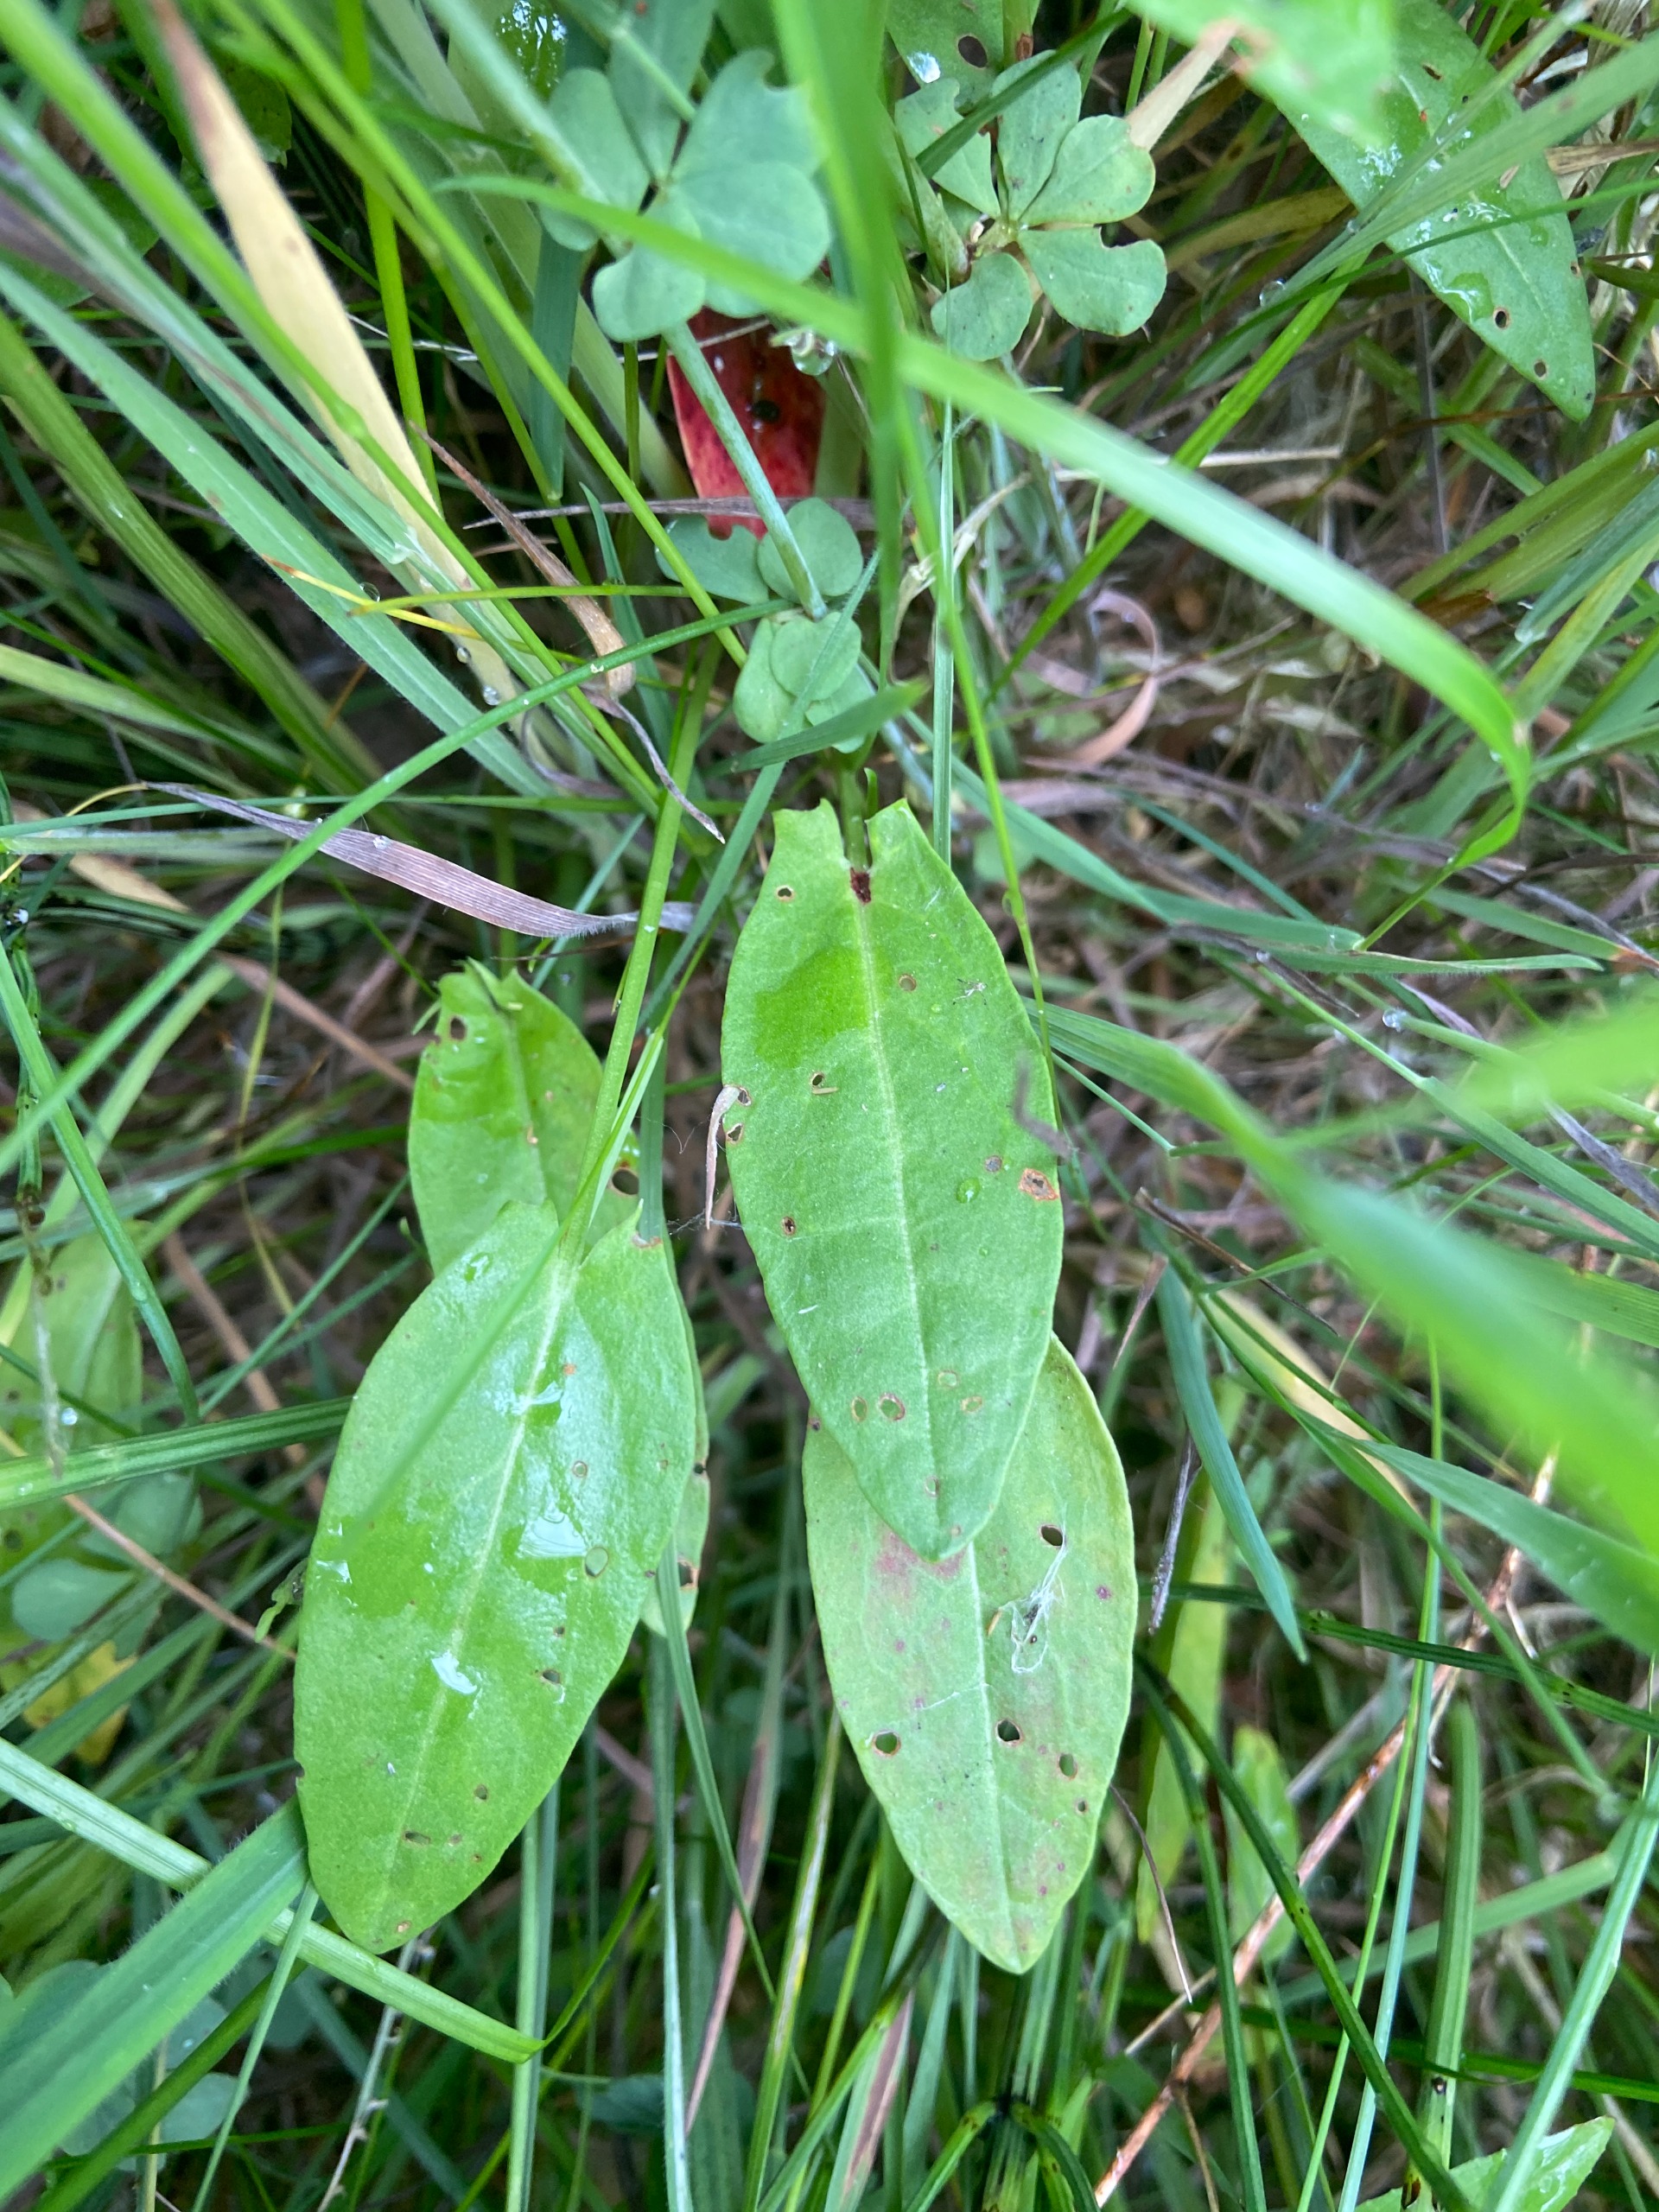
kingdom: Plantae
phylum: Tracheophyta
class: Magnoliopsida
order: Caryophyllales
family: Polygonaceae
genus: Rumex
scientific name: Rumex acetosa
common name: Almindelig syre
